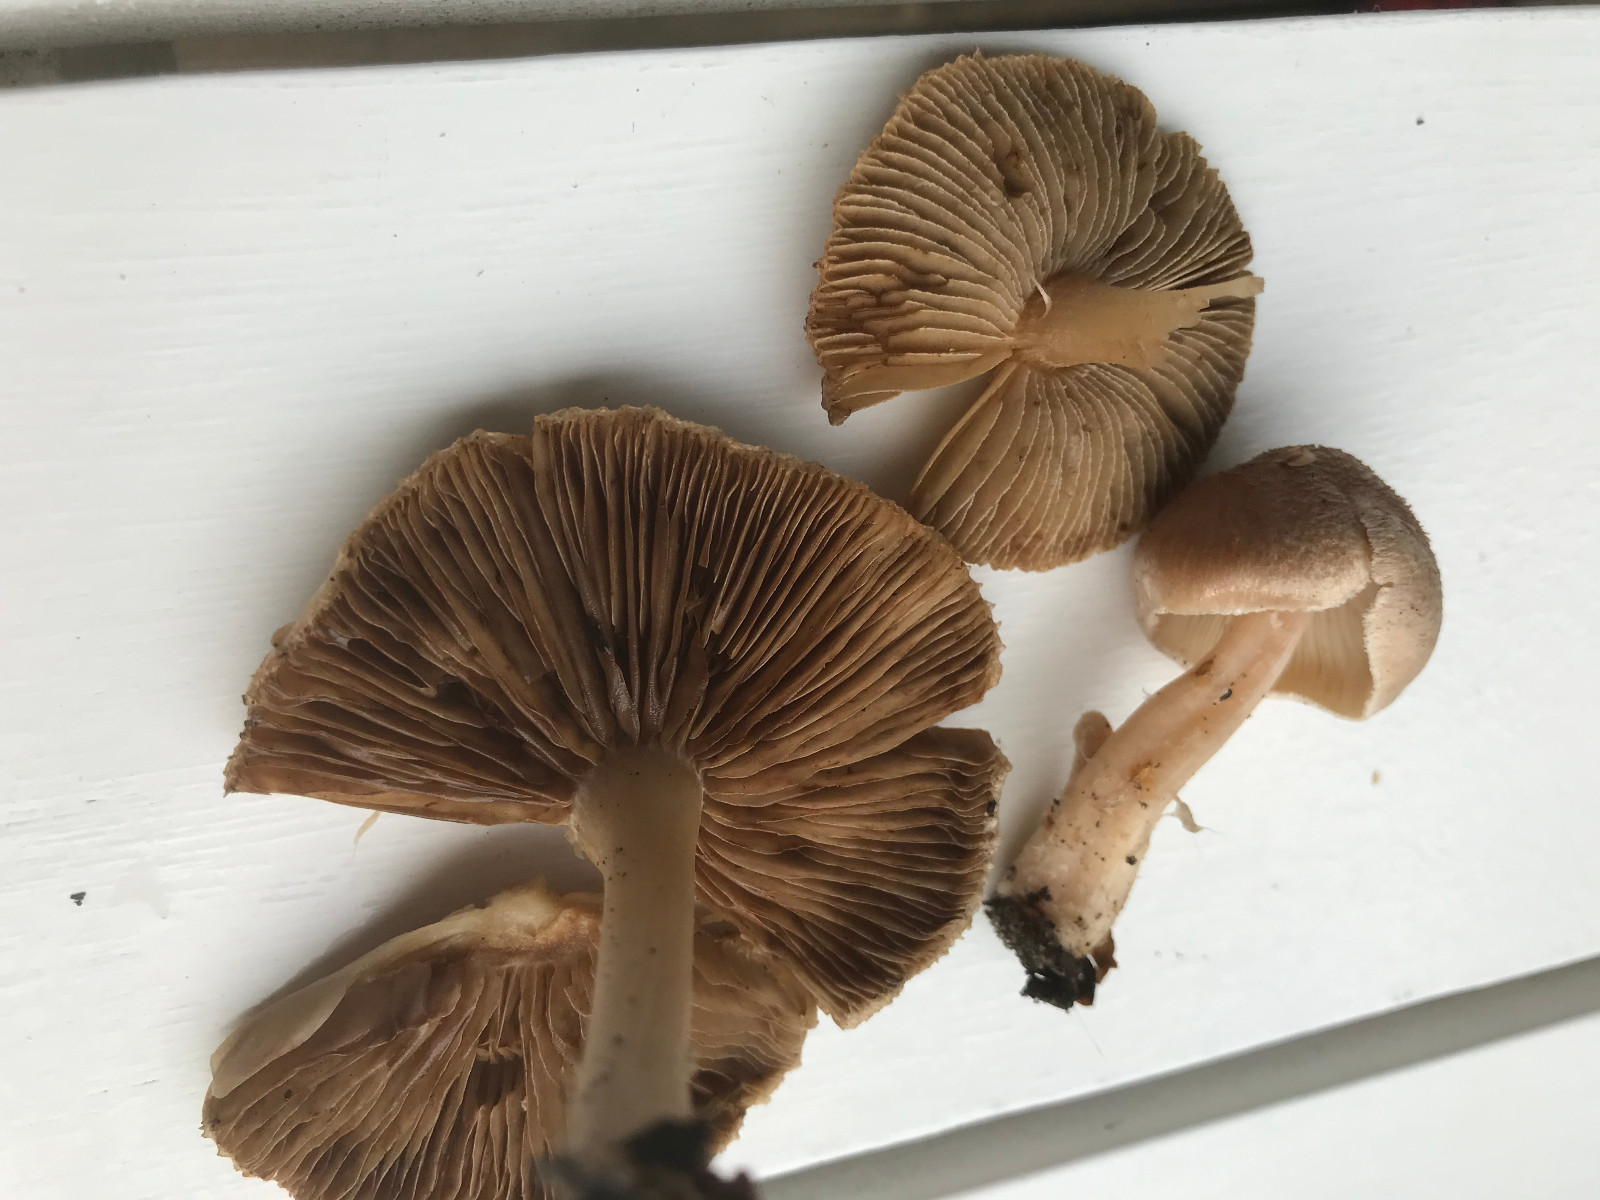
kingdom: Fungi
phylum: Basidiomycota
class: Agaricomycetes
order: Agaricales
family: Inocybaceae
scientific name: Inocybaceae
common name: trævlhatfamilien
